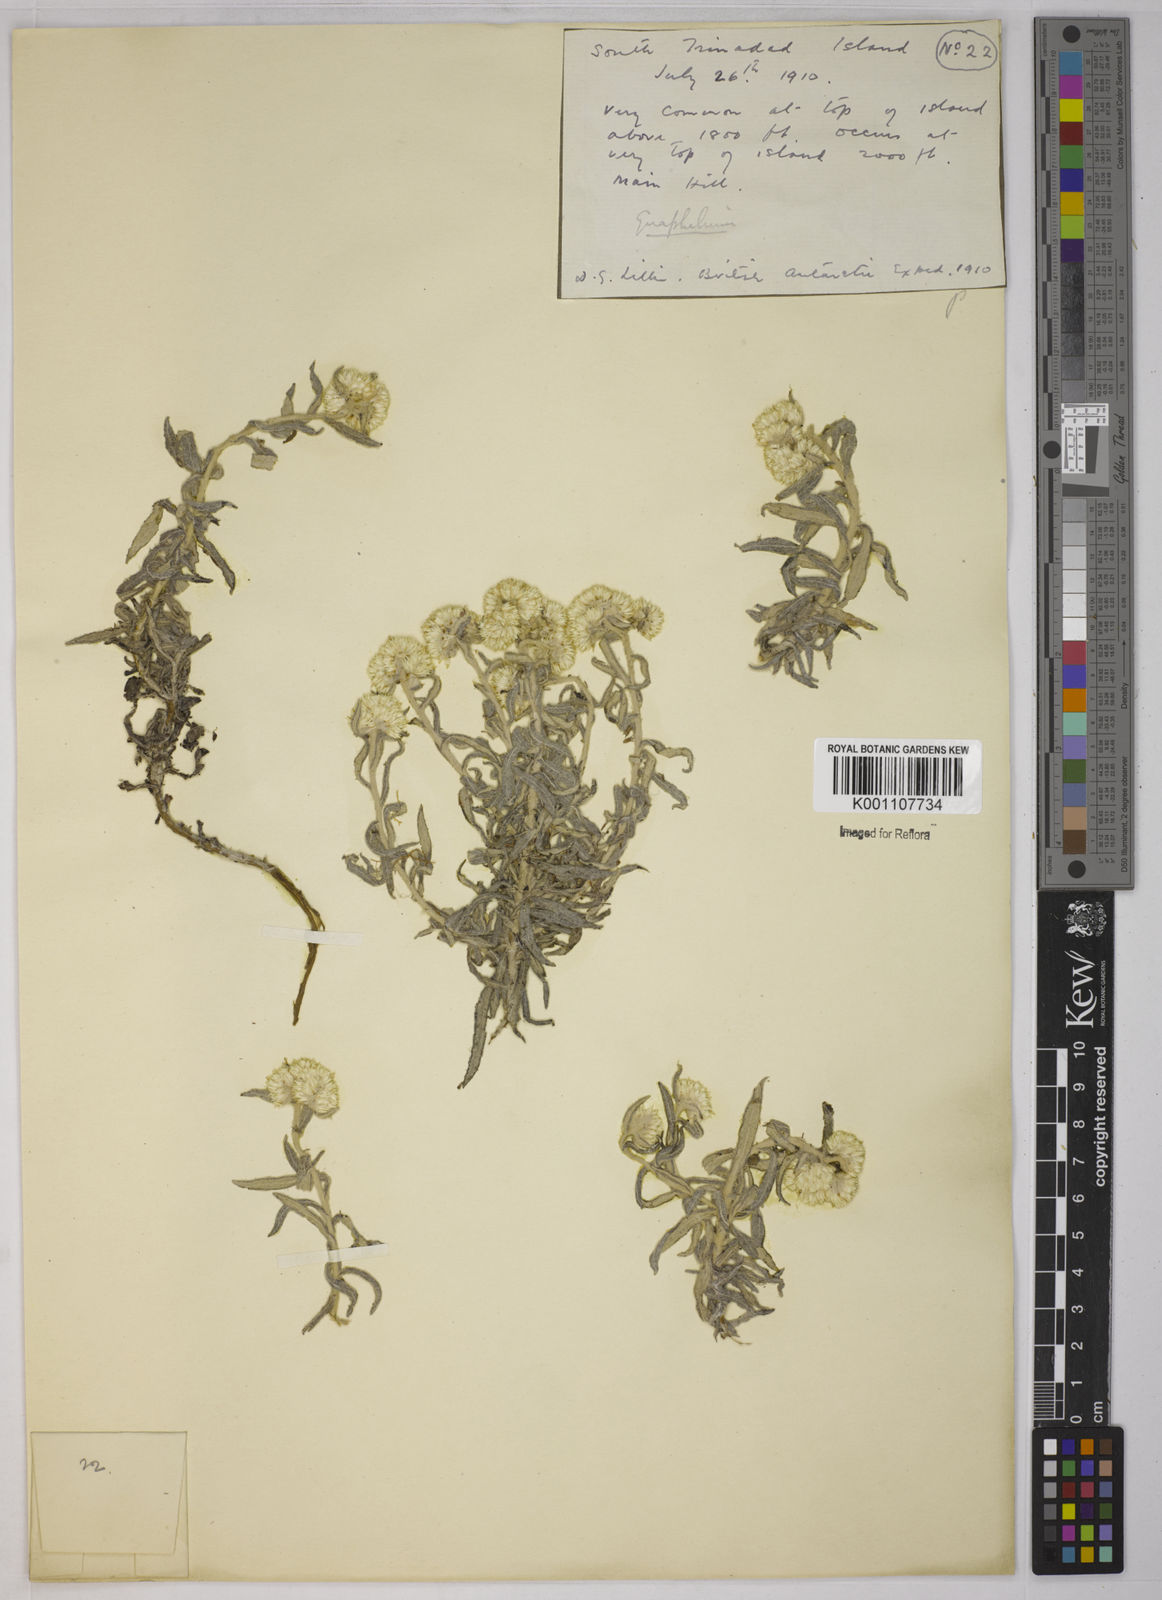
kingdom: Plantae
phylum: Tracheophyta
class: Magnoliopsida
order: Asterales
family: Asteraceae
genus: Pterocaulon
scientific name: Pterocaulon virgatum
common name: Wand blackroot
